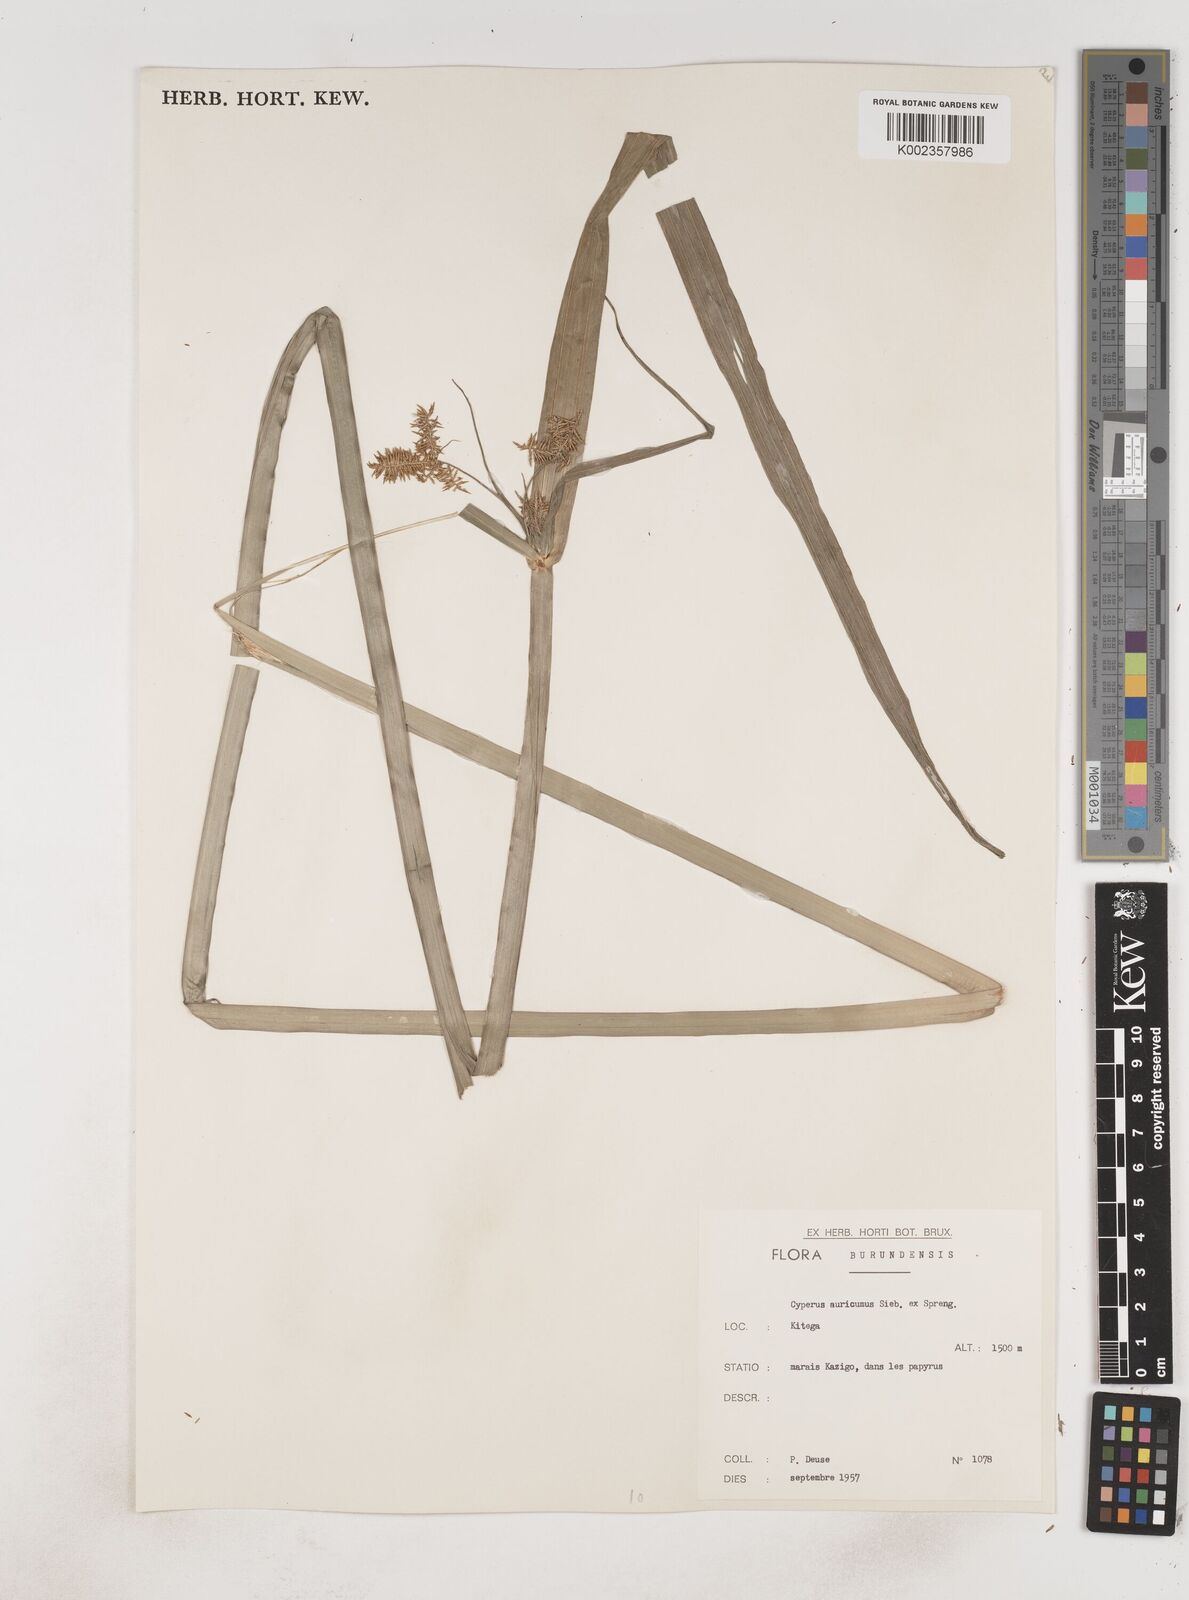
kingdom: Plantae
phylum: Tracheophyta
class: Liliopsida
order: Poales
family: Cyperaceae
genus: Cyperus
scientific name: Cyperus digitatus
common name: Finger flatsedge
